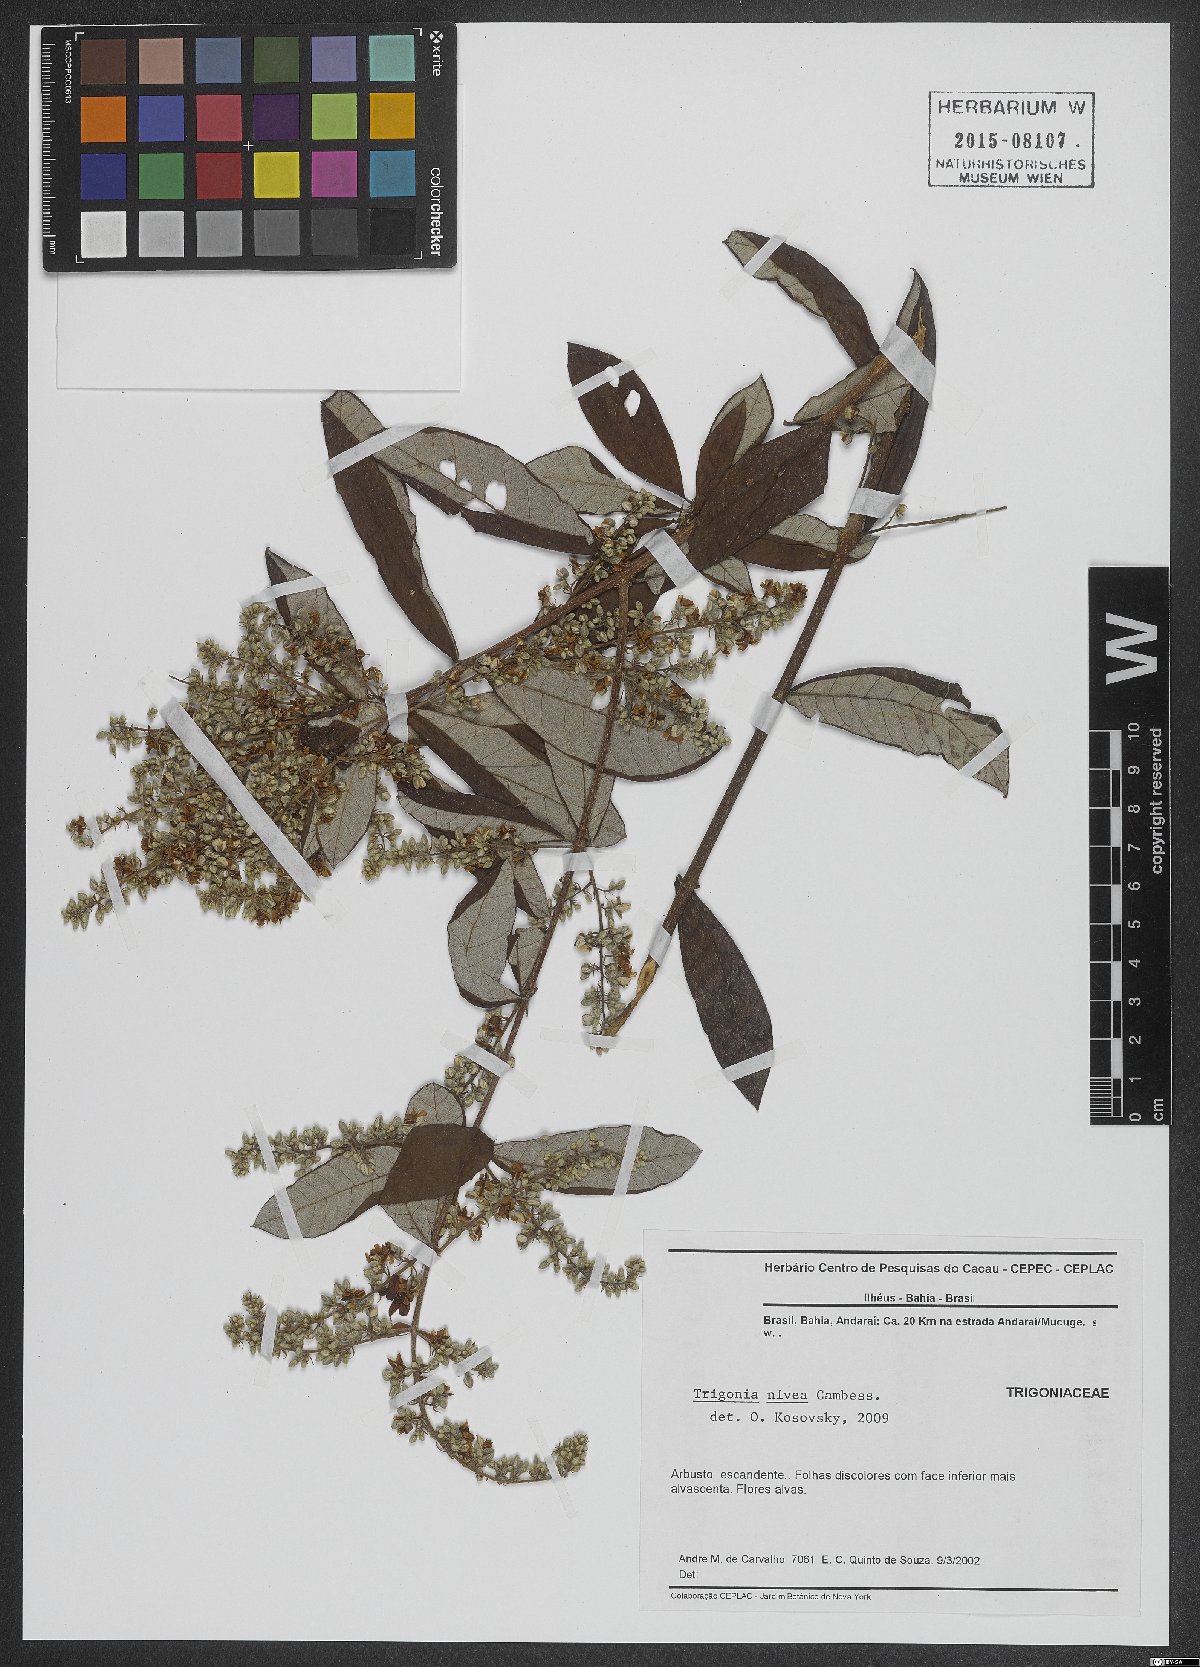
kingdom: Plantae
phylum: Tracheophyta
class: Magnoliopsida
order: Malpighiales
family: Trigoniaceae
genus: Trigonia
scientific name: Trigonia nivea
